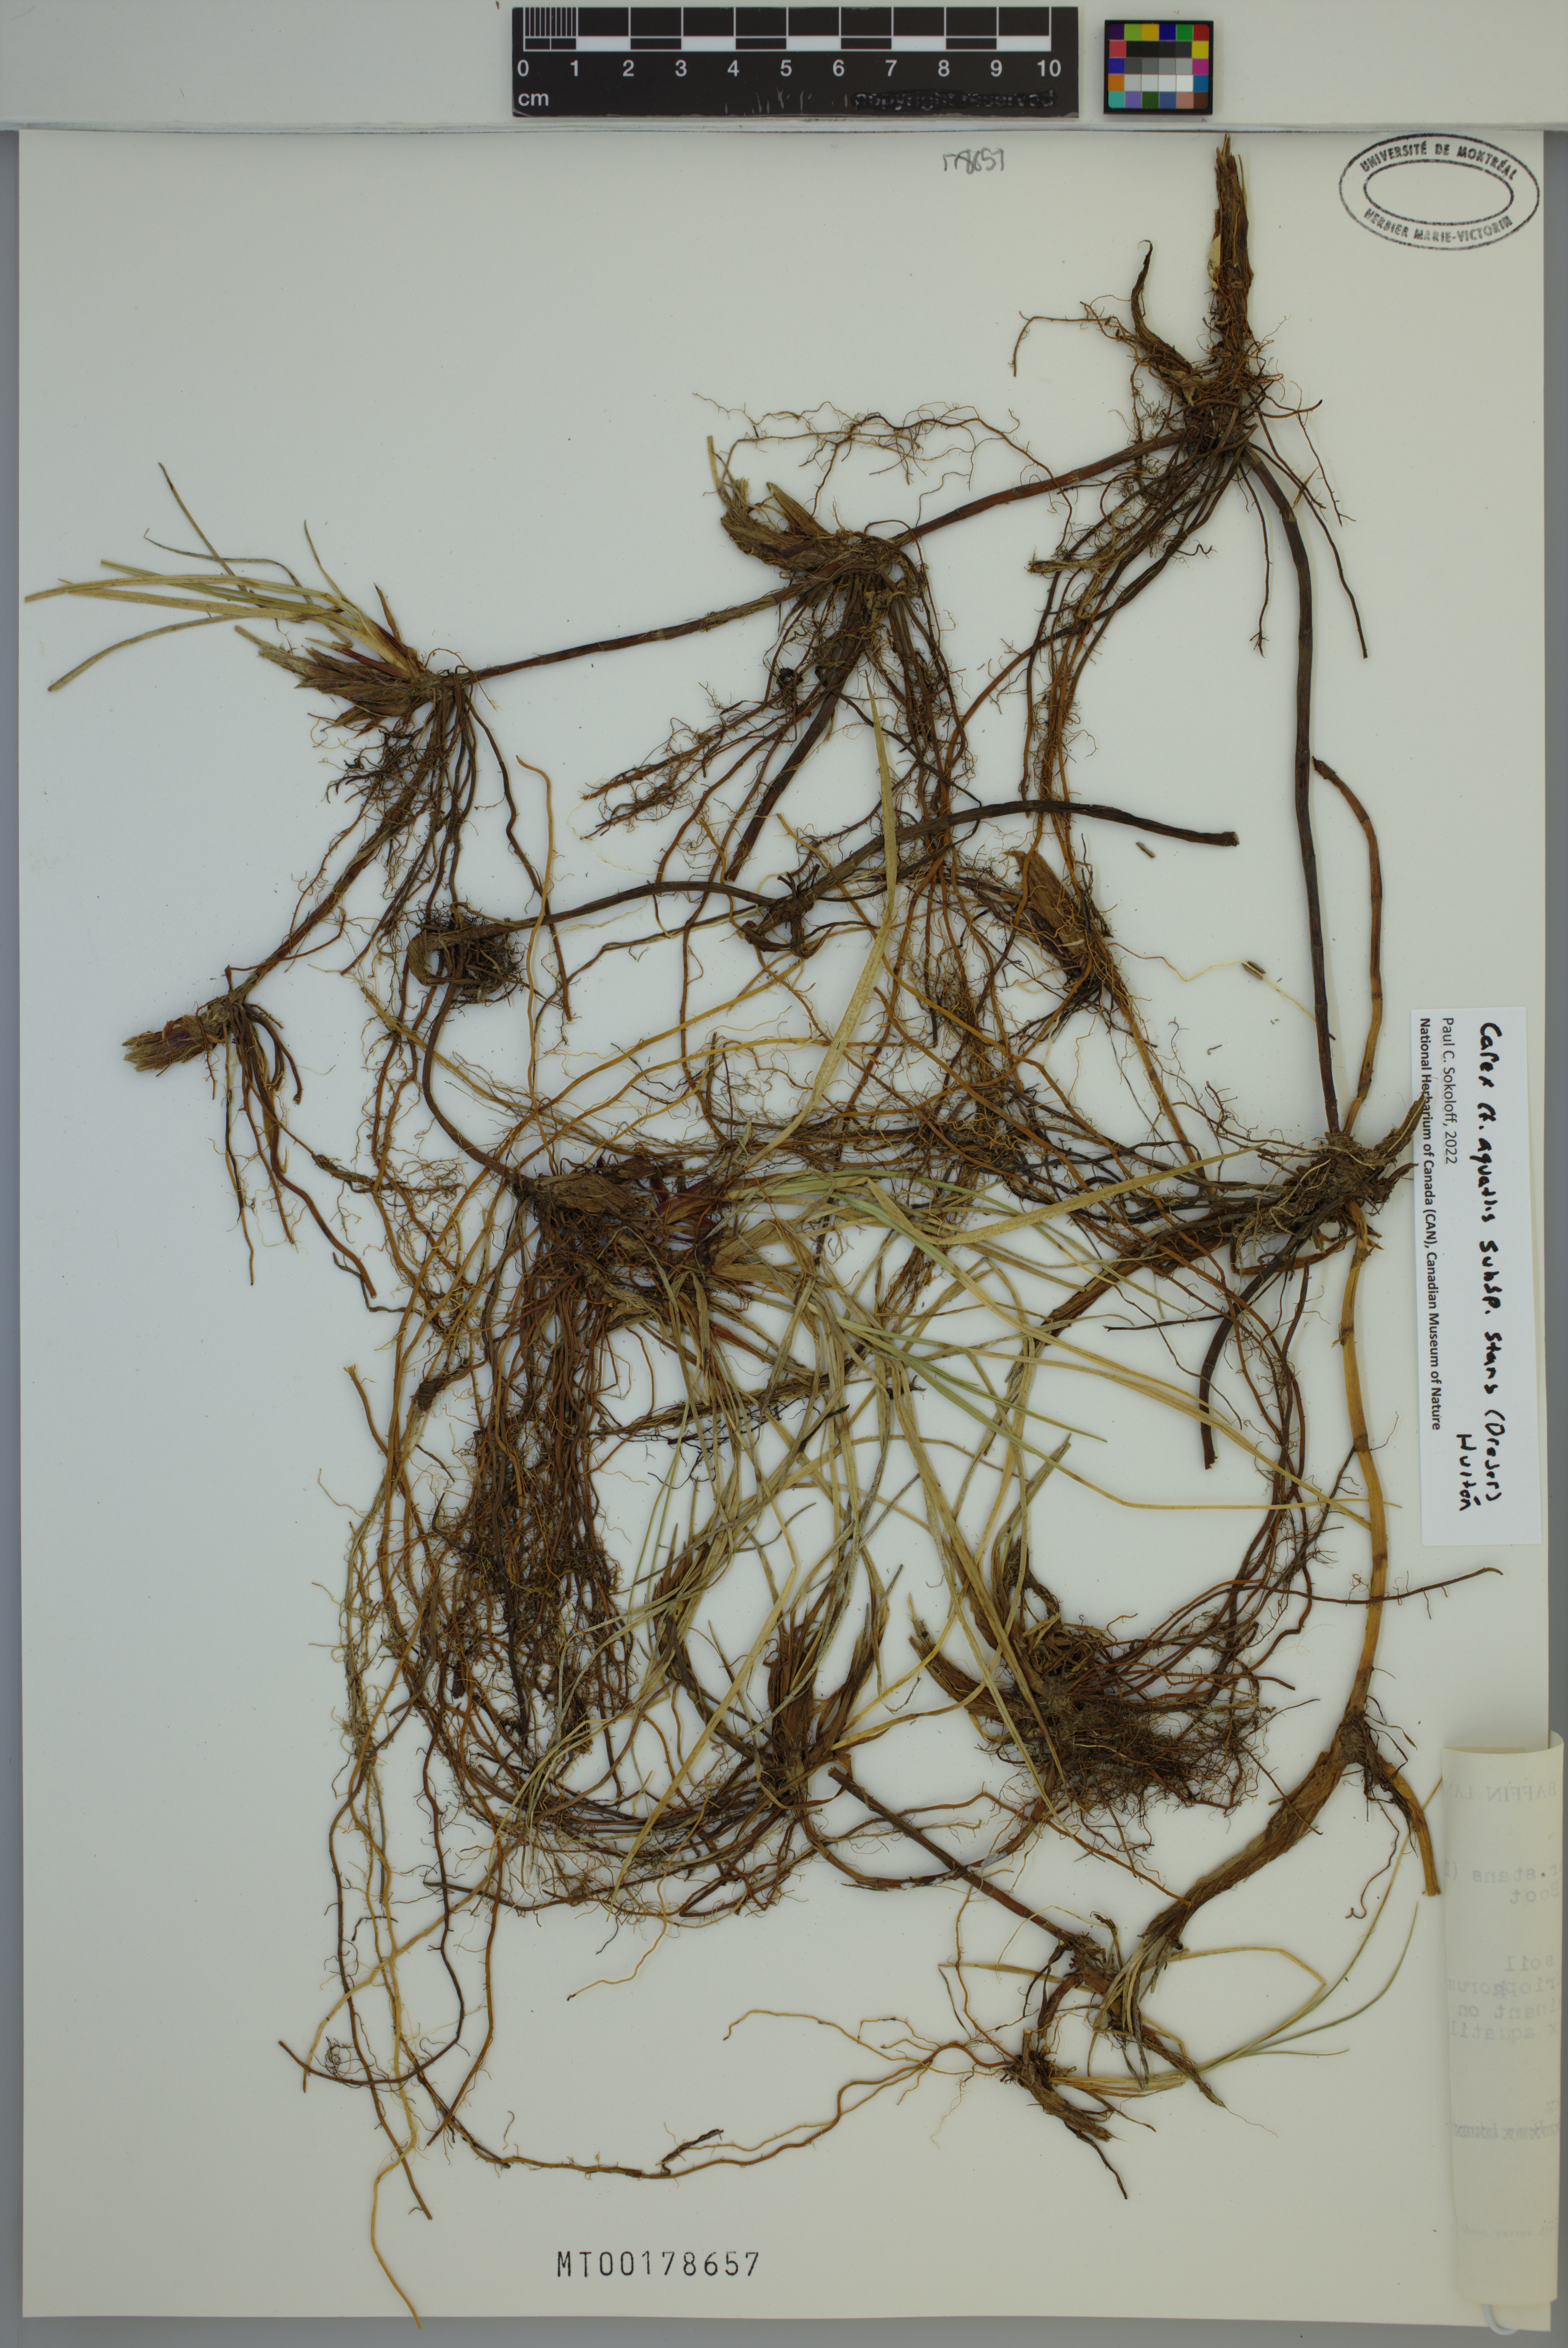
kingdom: Plantae
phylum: Tracheophyta
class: Liliopsida
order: Poales
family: Cyperaceae
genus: Carex
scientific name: Carex aquatilis
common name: Water sedge
